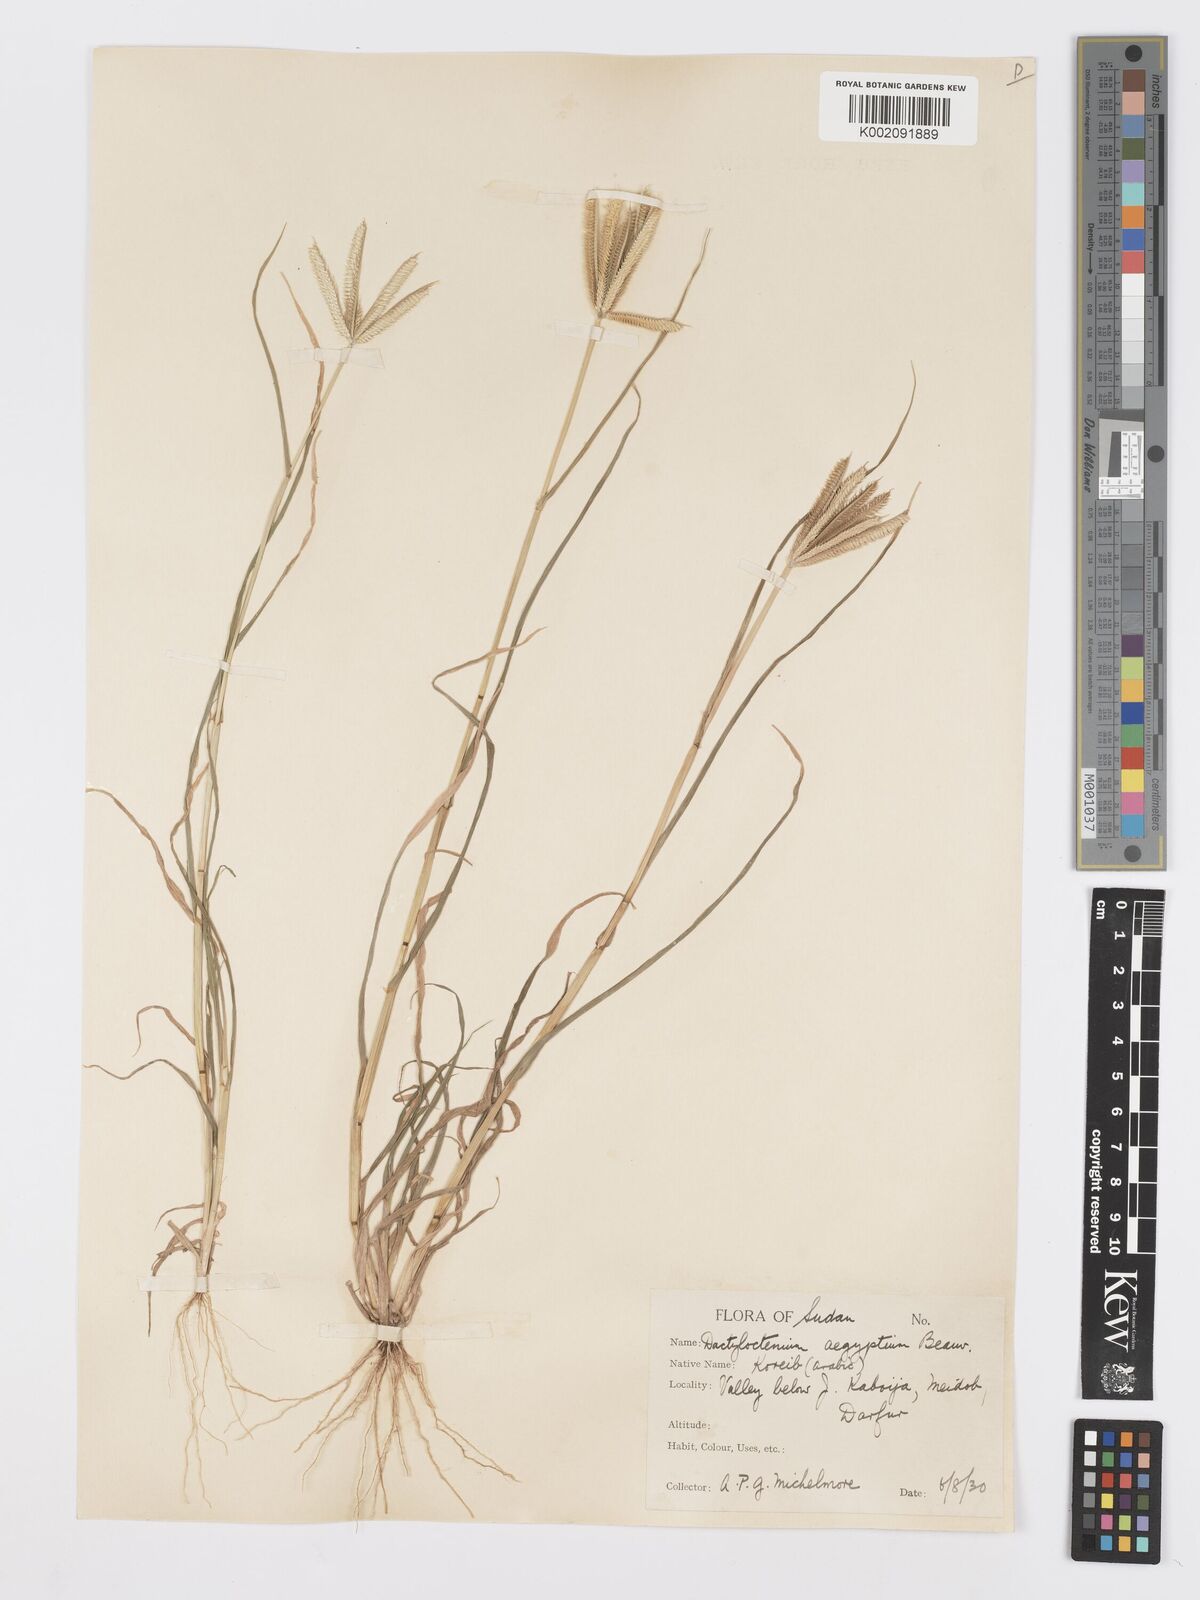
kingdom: Plantae
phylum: Tracheophyta
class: Liliopsida
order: Poales
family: Poaceae
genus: Dactyloctenium
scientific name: Dactyloctenium aegyptium
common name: Egyptian grass
